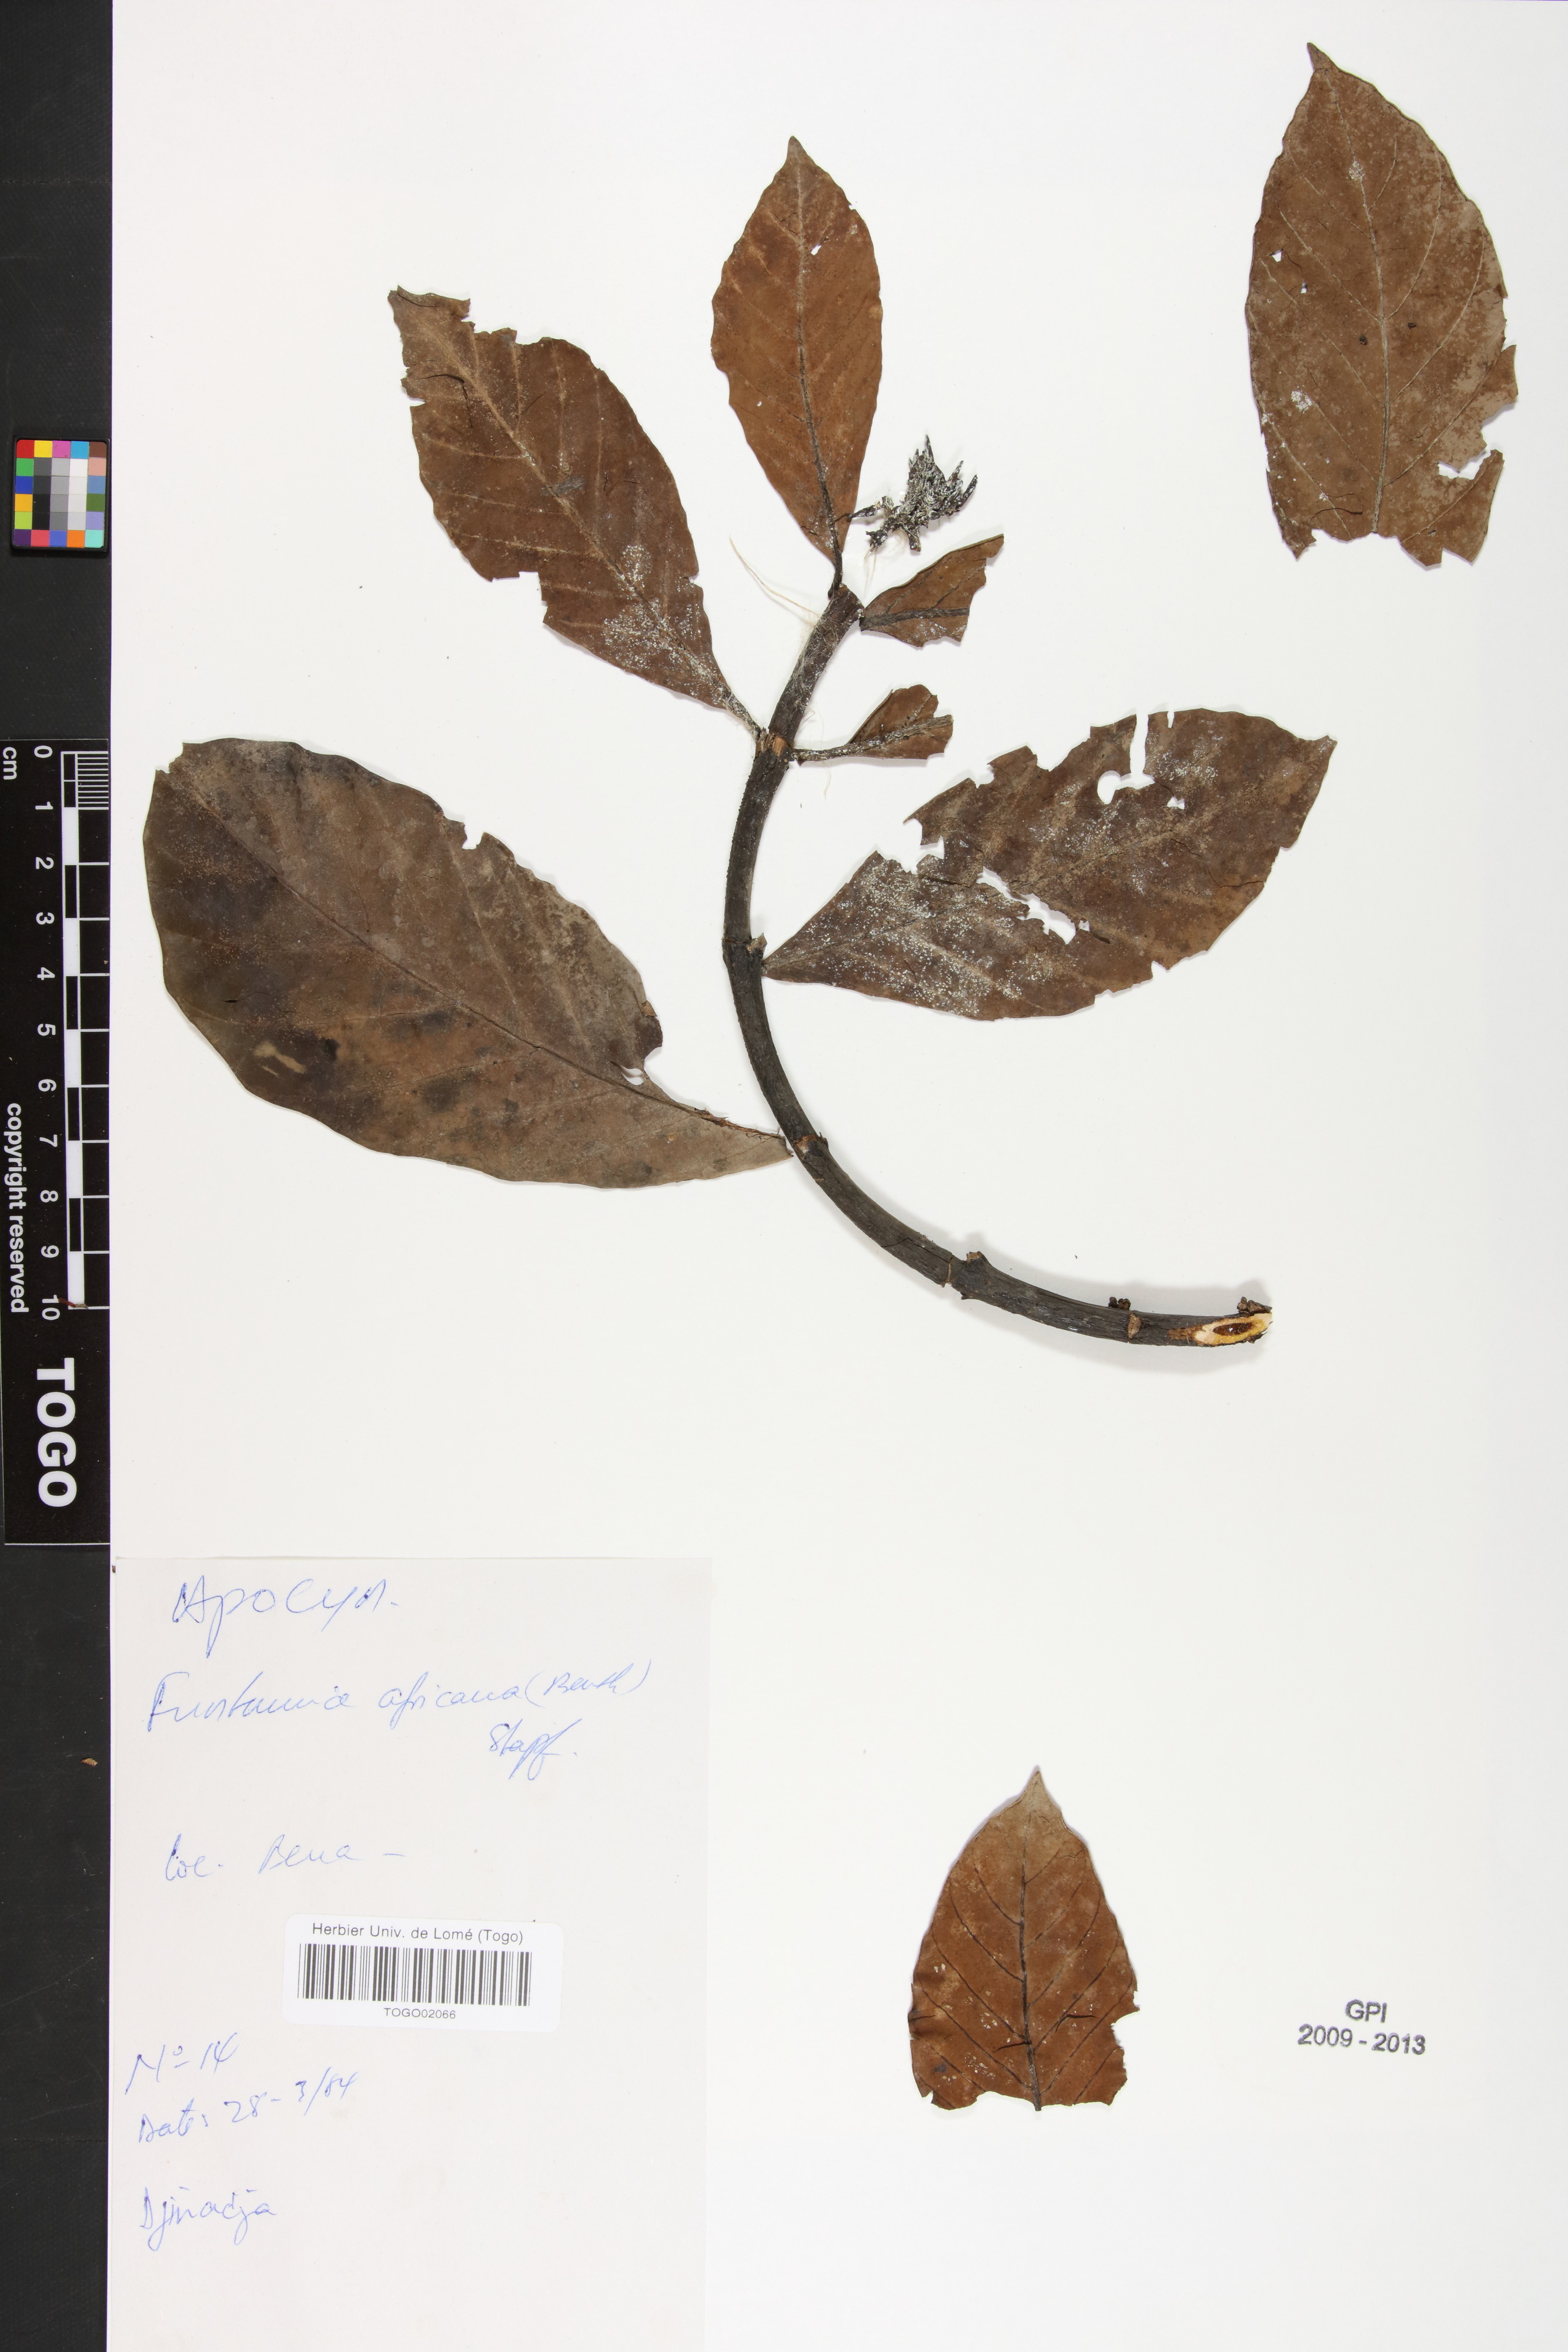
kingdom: Plantae
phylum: Tracheophyta
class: Magnoliopsida
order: Gentianales
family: Apocynaceae
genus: Funtumia
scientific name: Funtumia africana
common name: Lagos-rubber
